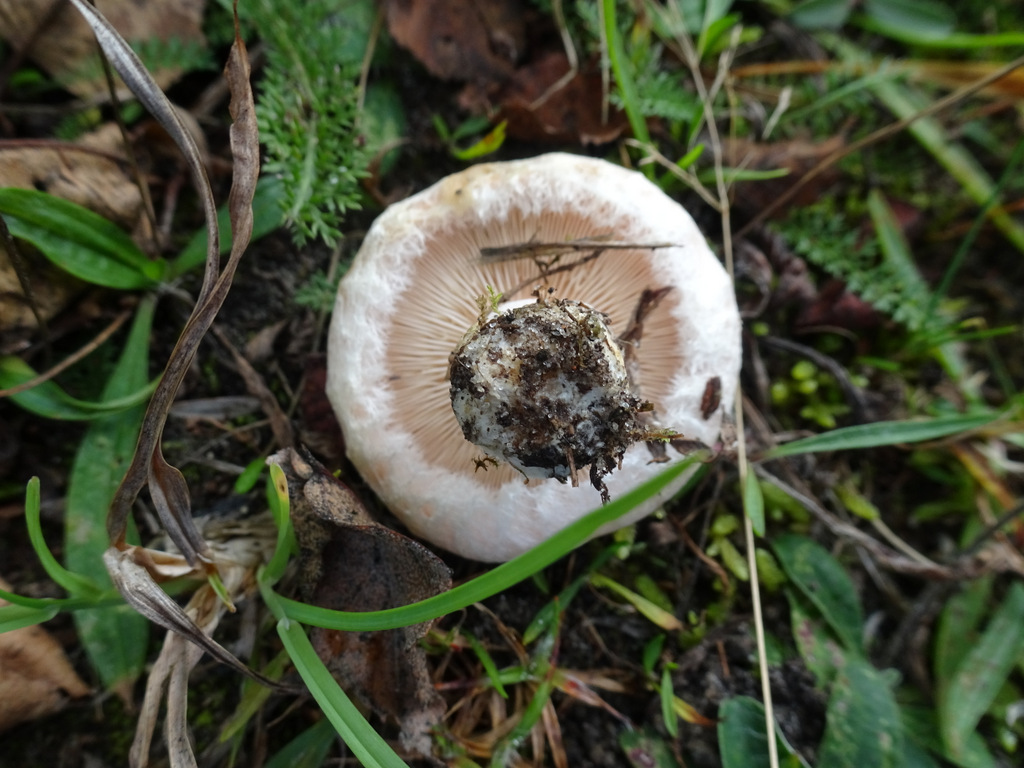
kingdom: Fungi
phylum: Basidiomycota
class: Agaricomycetes
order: Russulales
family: Russulaceae
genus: Lactarius
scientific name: Lactarius pubescens
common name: dunet mælkehat
